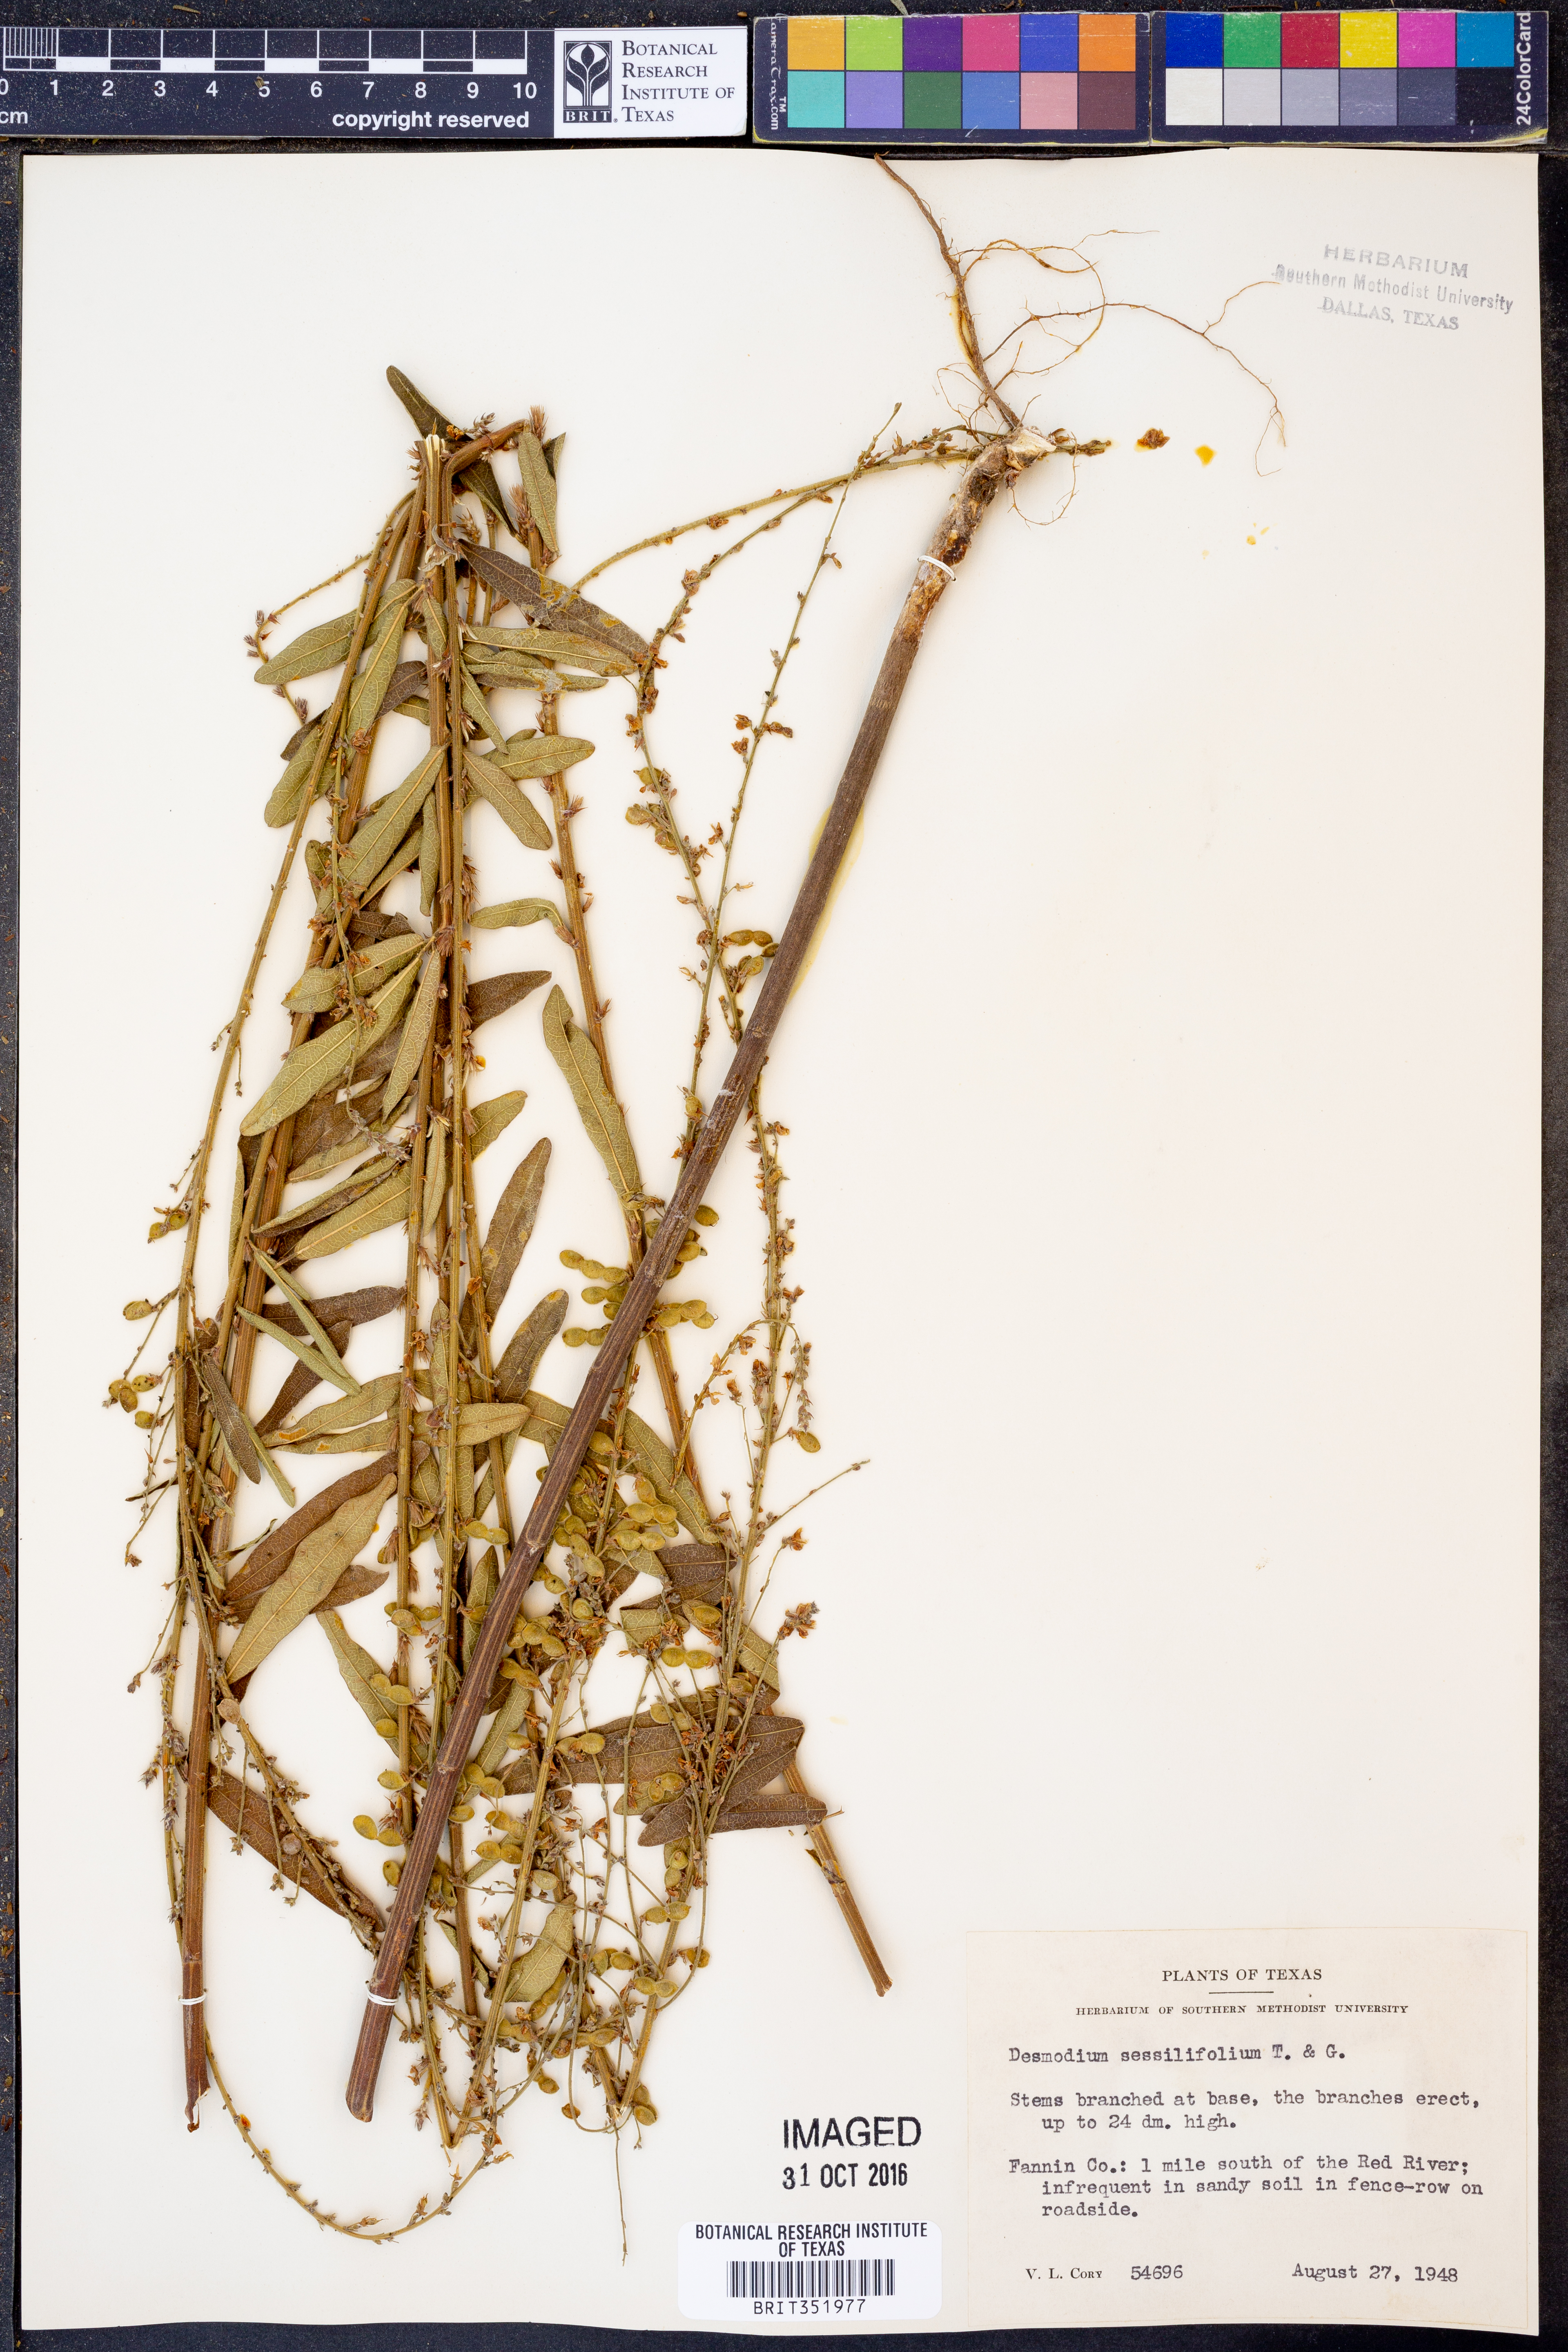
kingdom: Plantae
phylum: Tracheophyta
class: Magnoliopsida
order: Fabales
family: Fabaceae
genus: Desmodium
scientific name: Desmodium sessilifolium
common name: Sessile tick-clover
